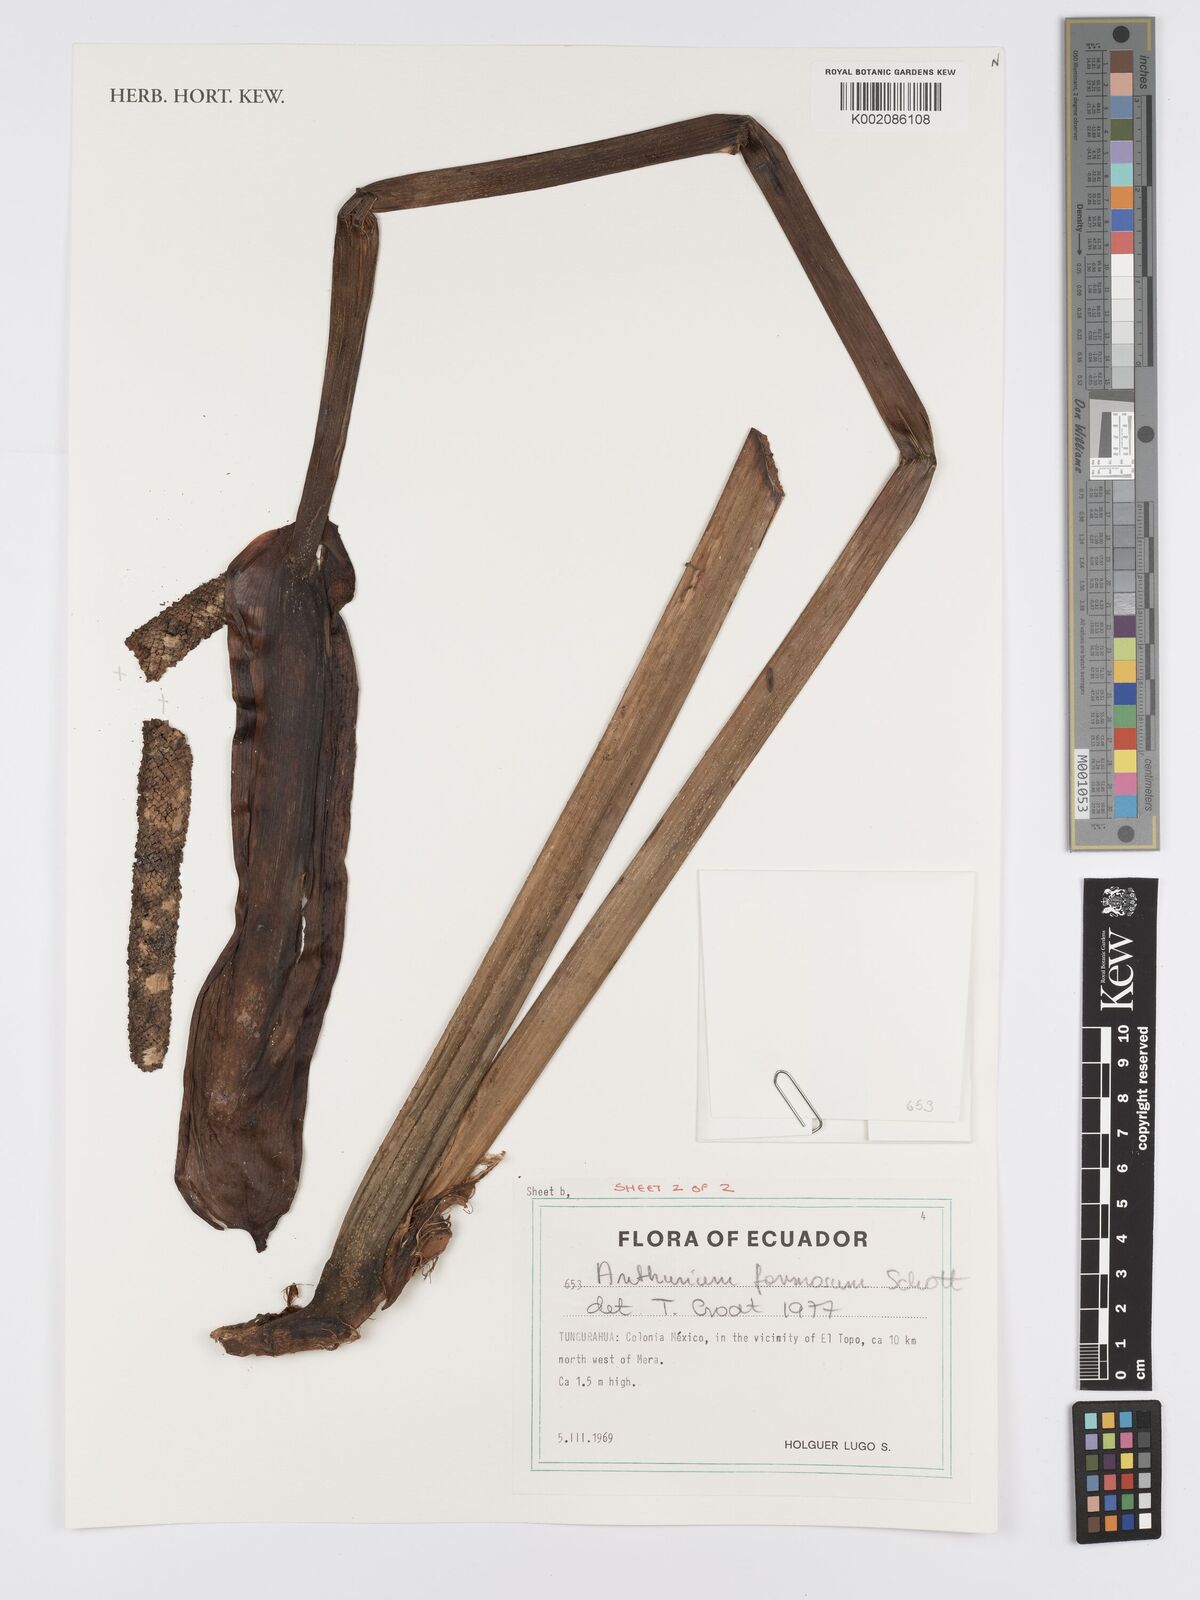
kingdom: Plantae
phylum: Tracheophyta
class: Liliopsida
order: Alismatales
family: Araceae
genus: Anthurium
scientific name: Anthurium formosum
